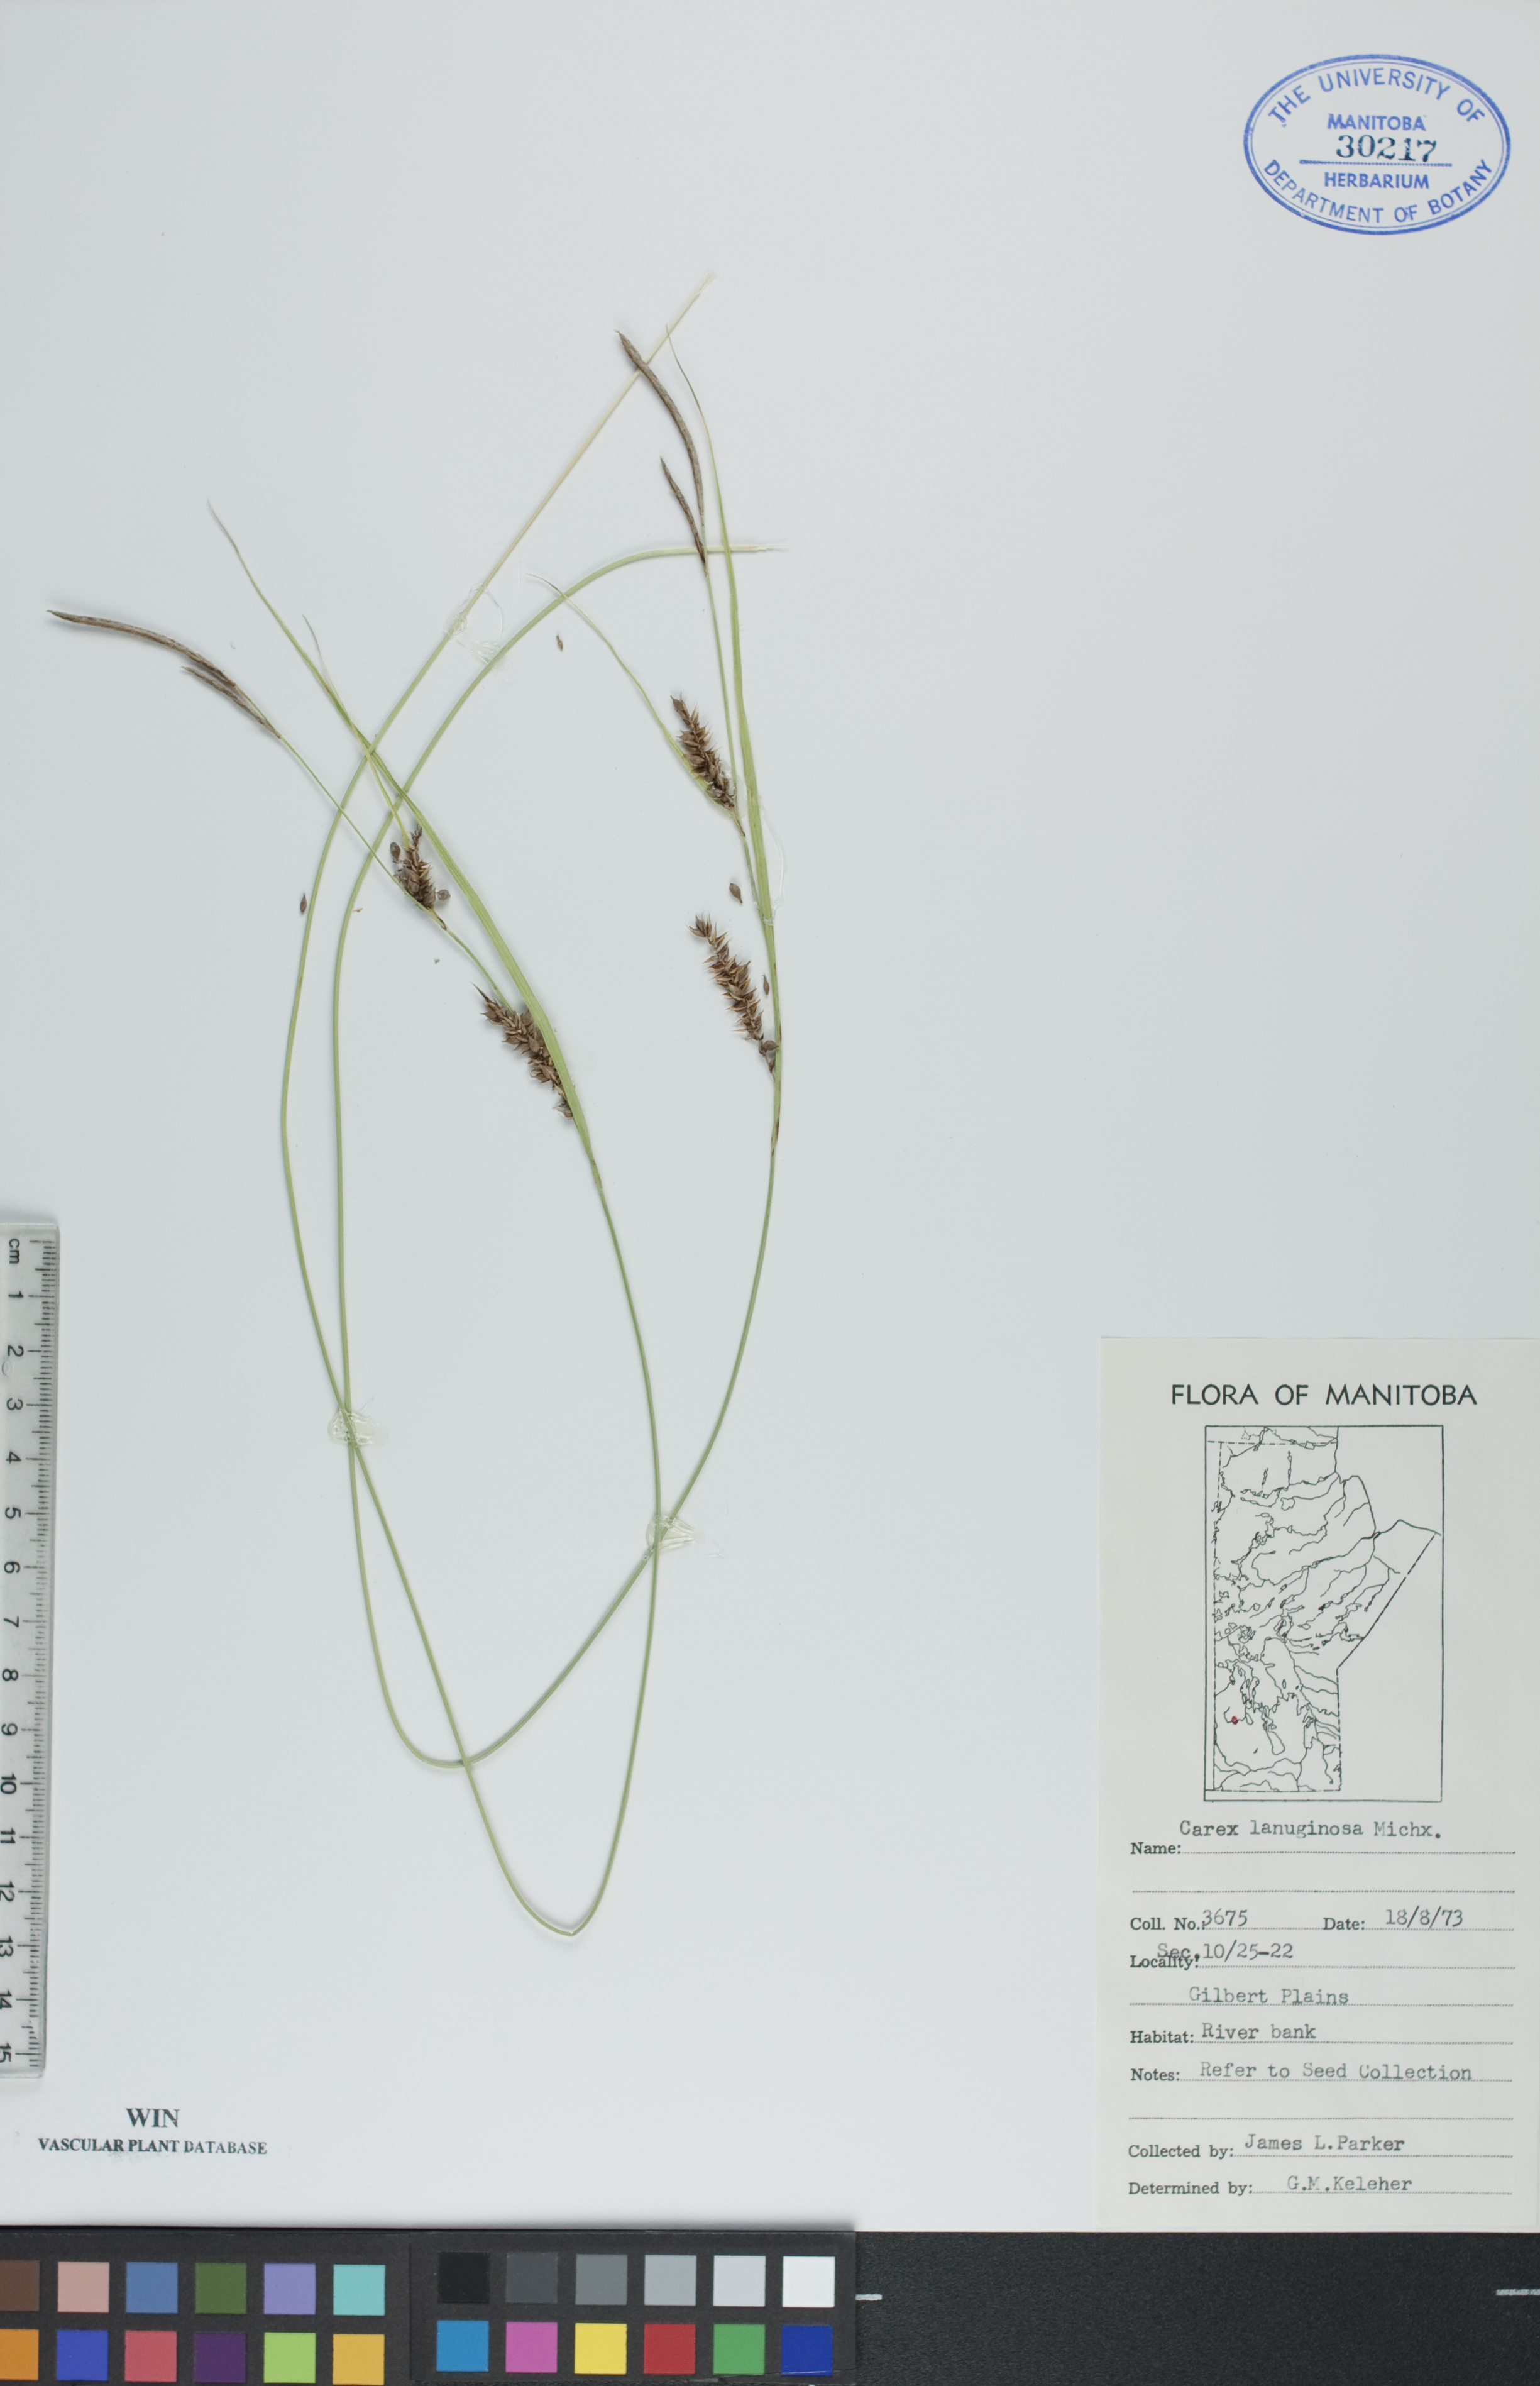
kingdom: Plantae
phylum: Tracheophyta
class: Liliopsida
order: Poales
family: Cyperaceae
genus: Carex
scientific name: Carex lasiocarpa
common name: Slender sedge
